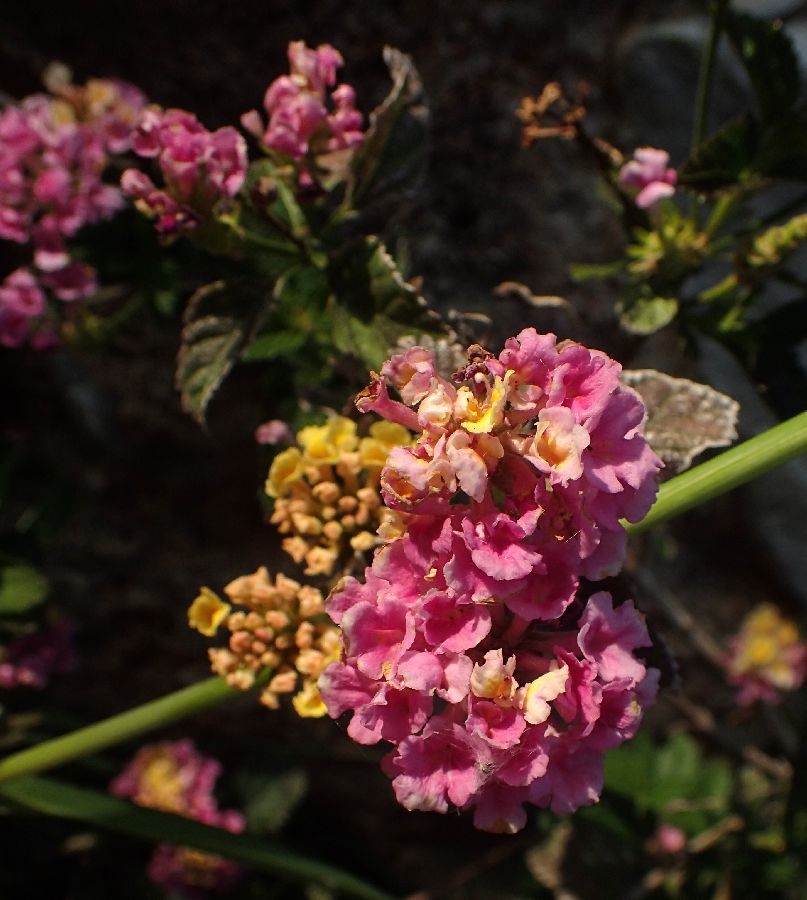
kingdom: Plantae
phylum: Tracheophyta
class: Magnoliopsida
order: Lamiales
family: Verbenaceae
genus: Lantana
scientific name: Lantana camara
